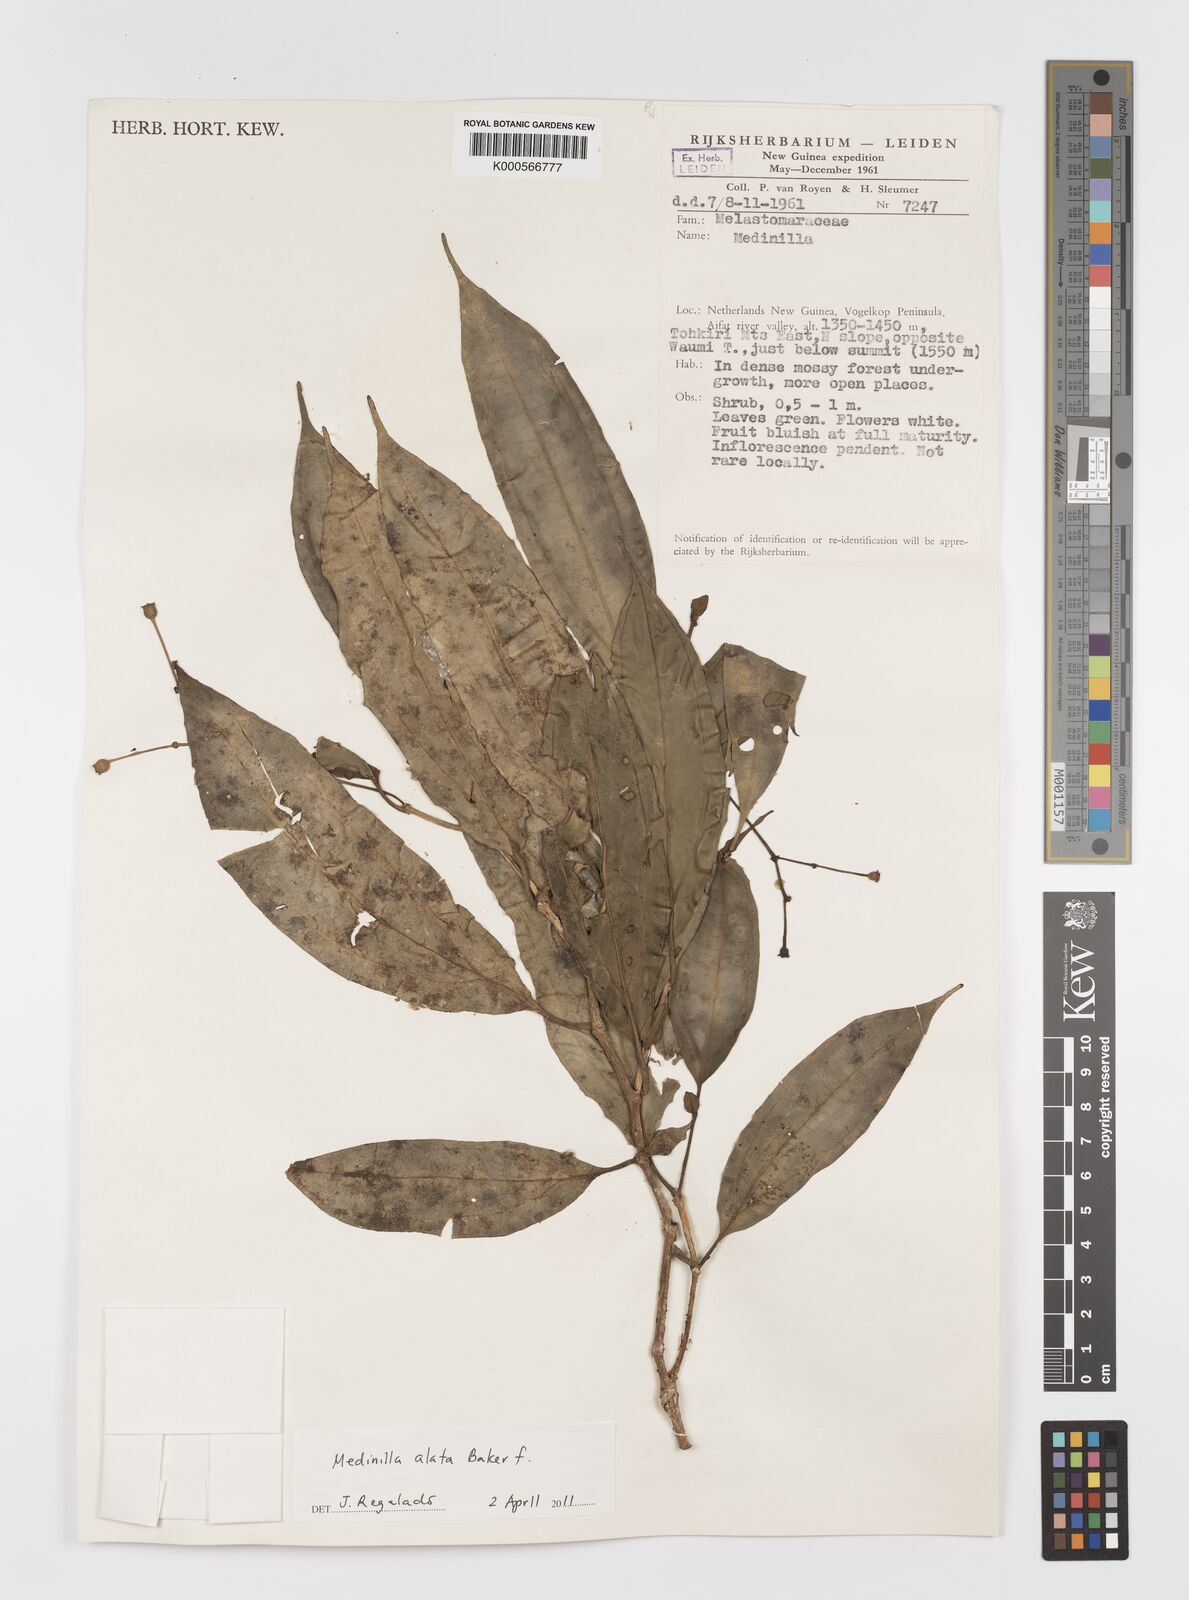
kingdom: Plantae
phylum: Tracheophyta
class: Magnoliopsida
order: Myrtales
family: Melastomataceae
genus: Medinilla
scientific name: Medinilla alata
